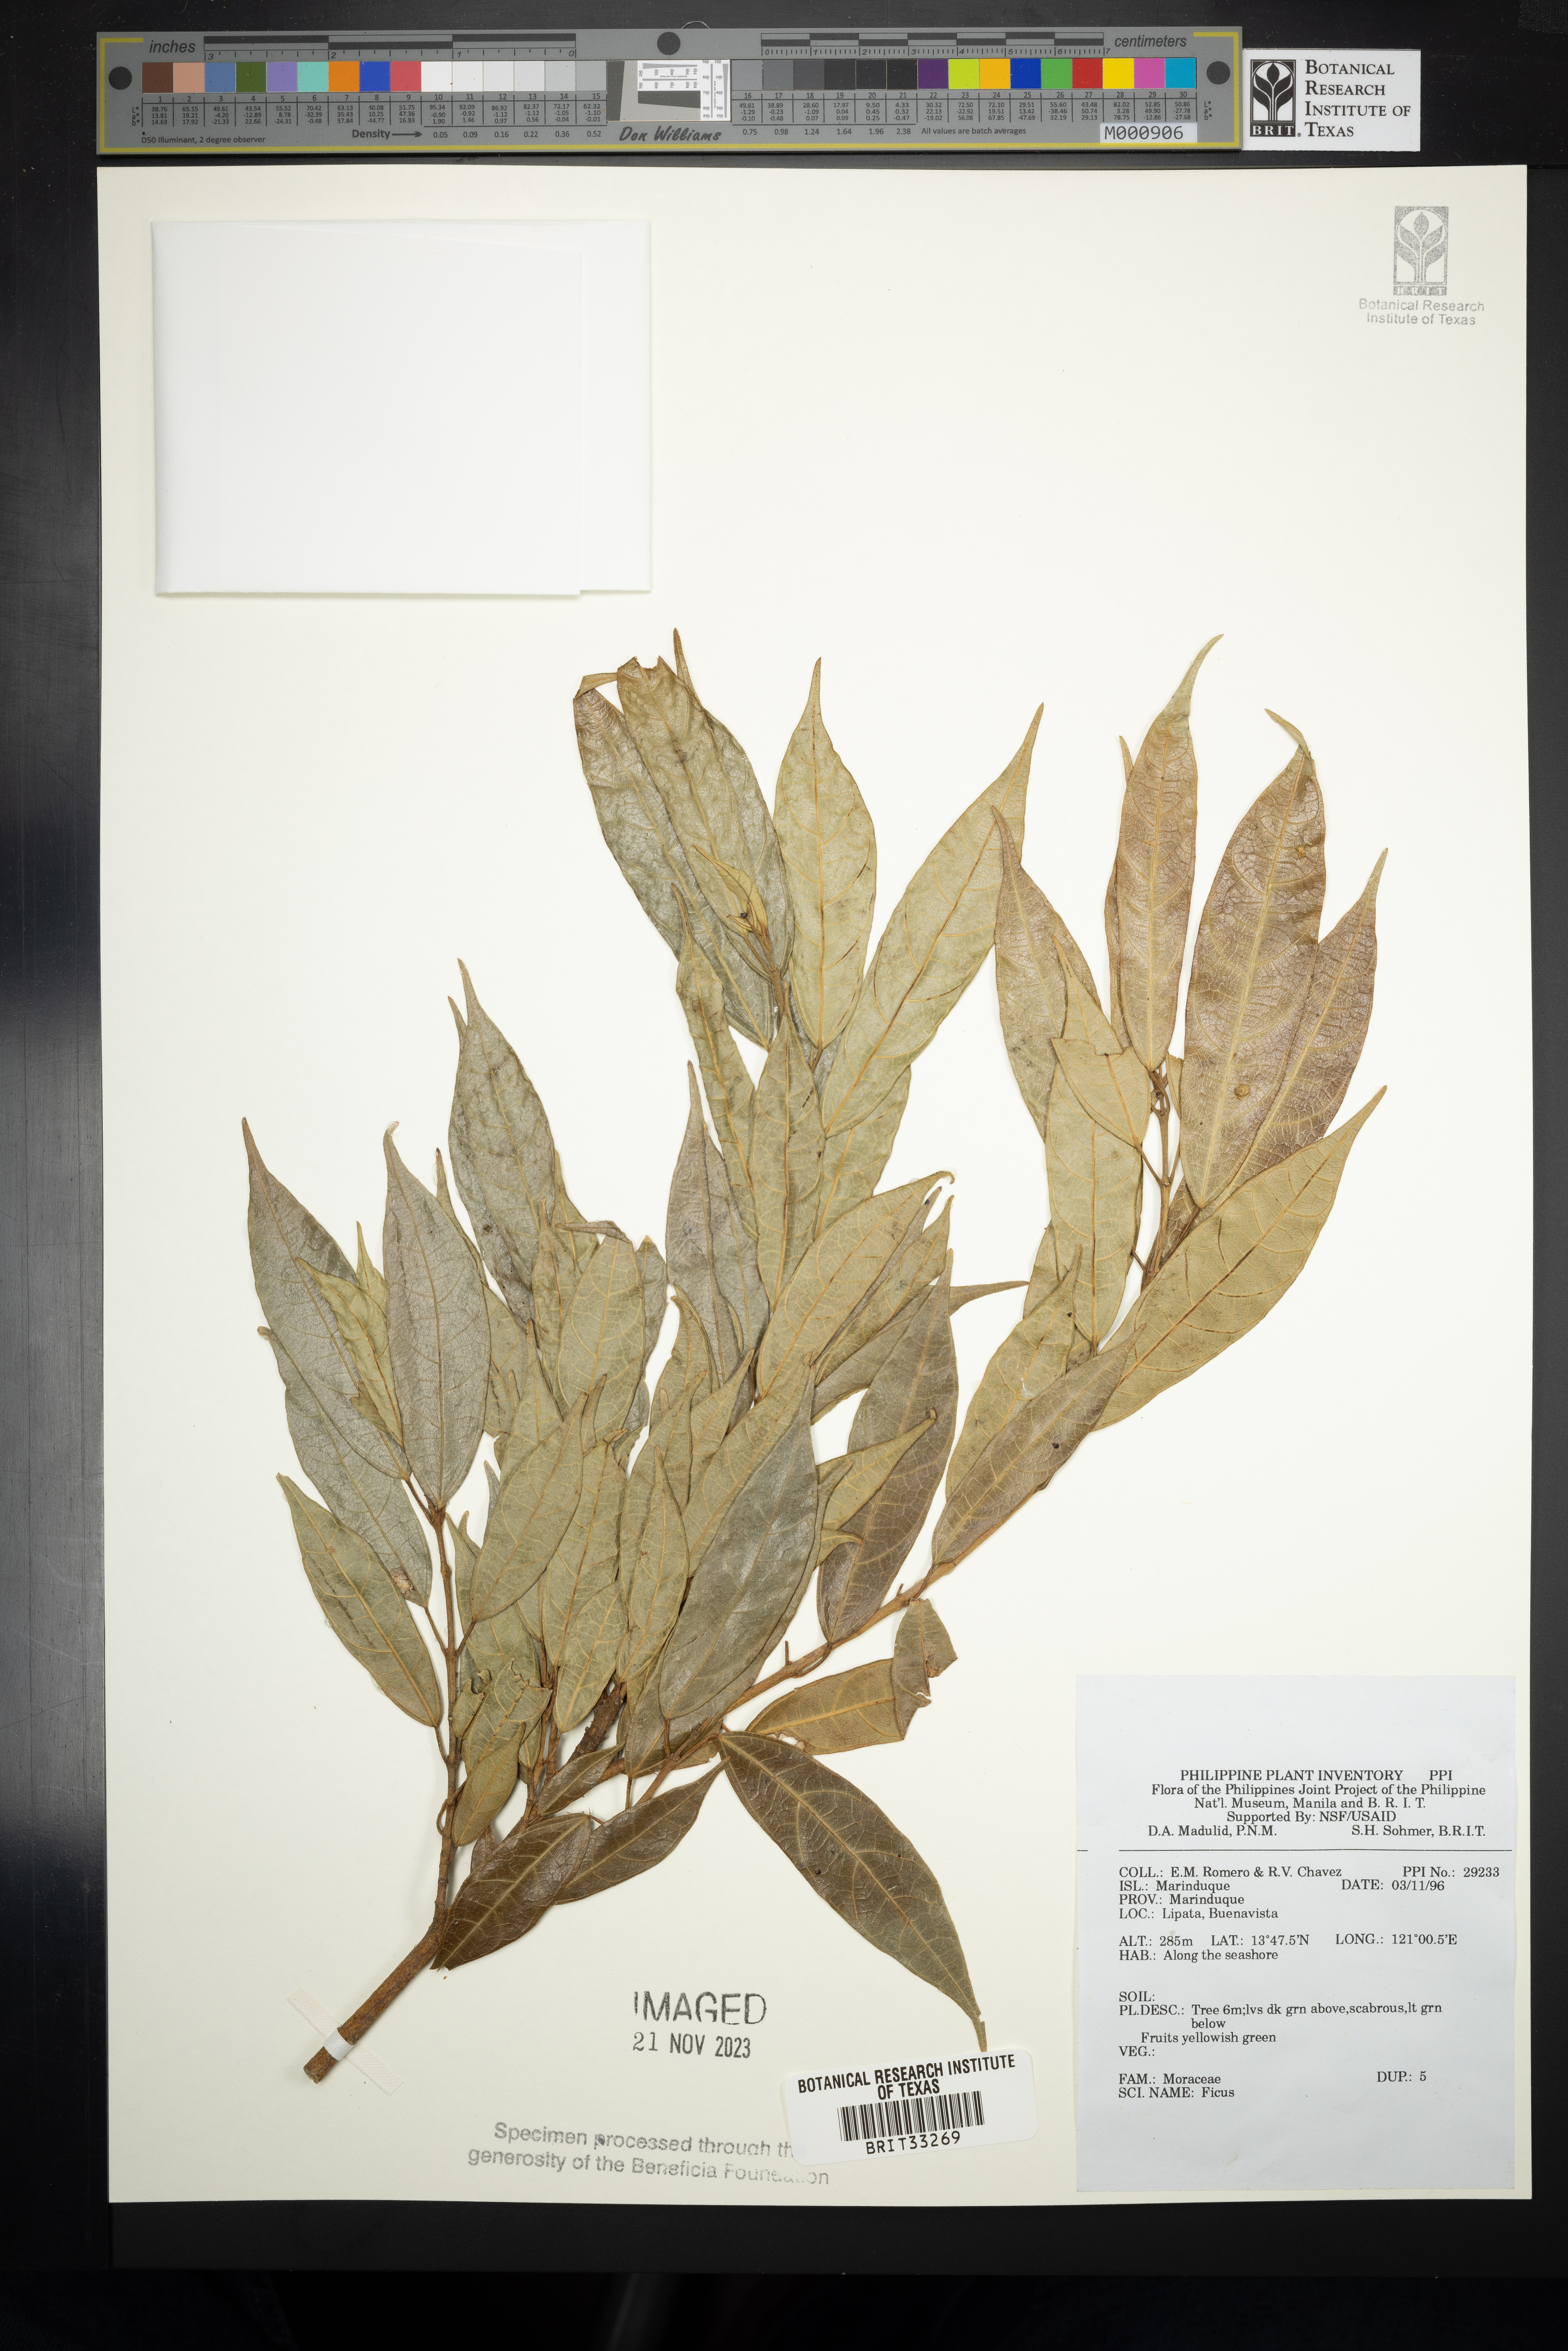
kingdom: Plantae
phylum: Tracheophyta
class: Magnoliopsida
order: Rosales
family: Moraceae
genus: Ficus
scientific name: Ficus
